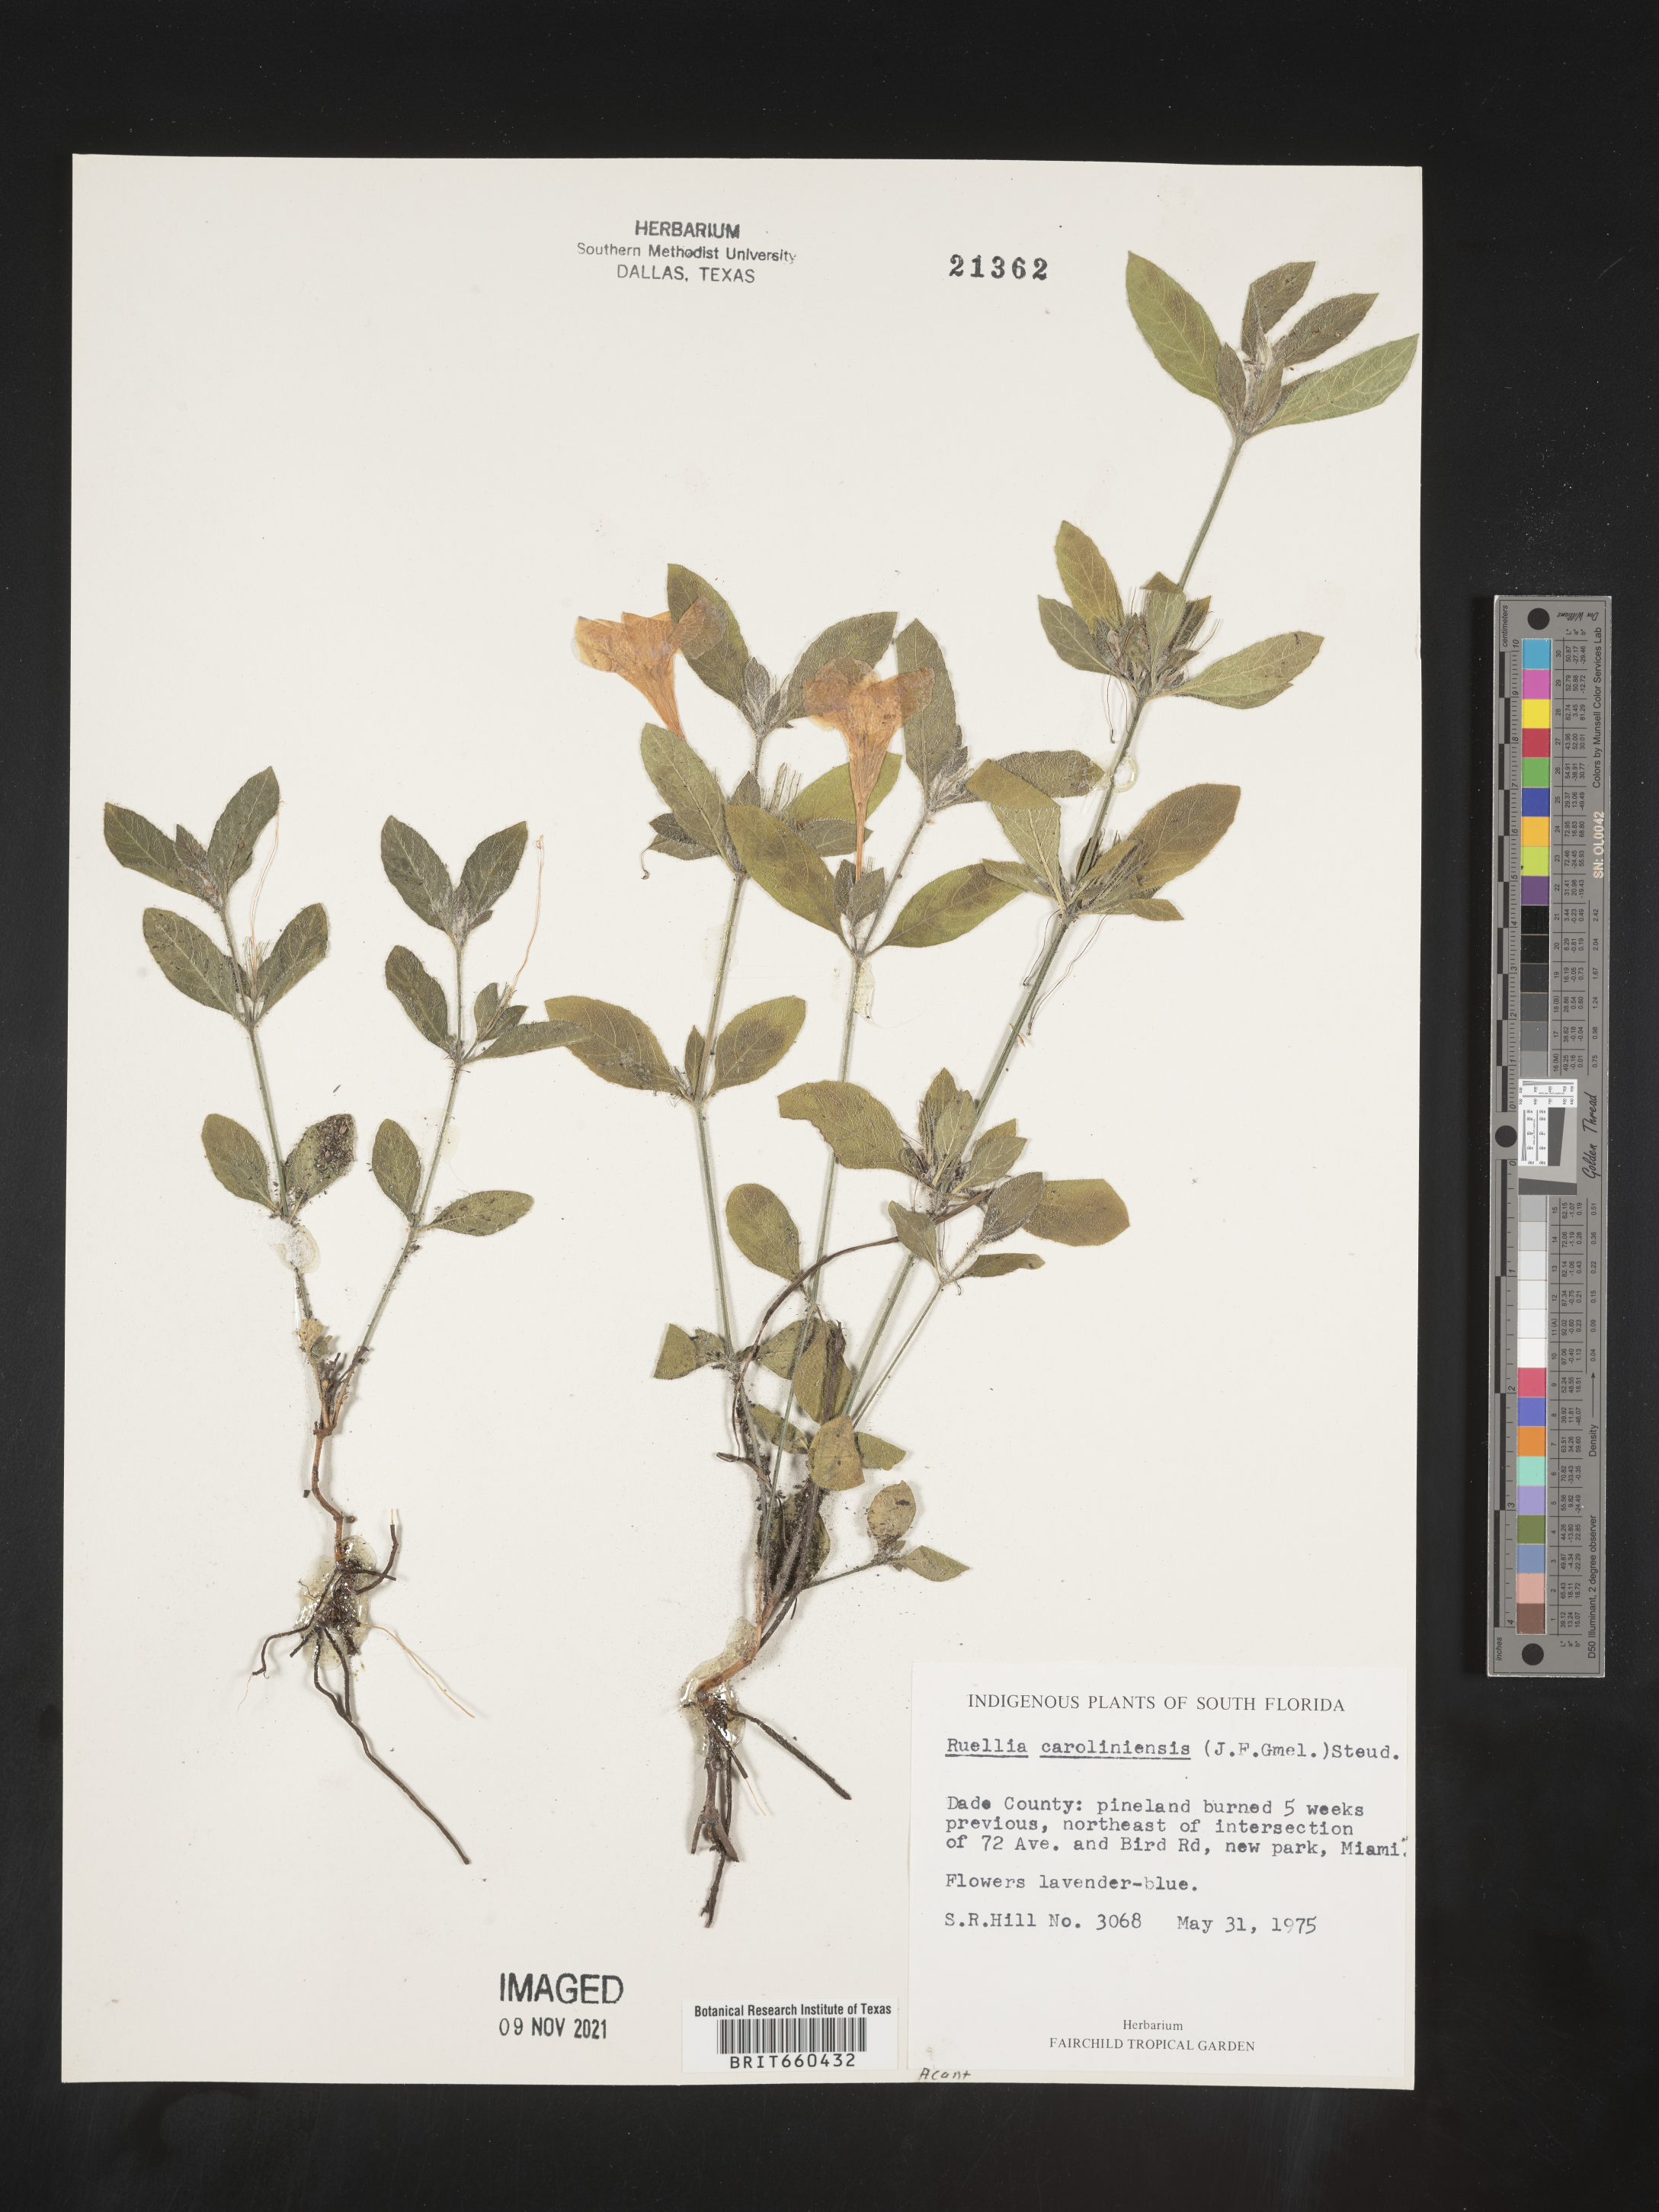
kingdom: Plantae
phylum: Tracheophyta
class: Magnoliopsida
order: Lamiales
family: Acanthaceae
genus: Ruellia
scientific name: Ruellia caroliniensis
